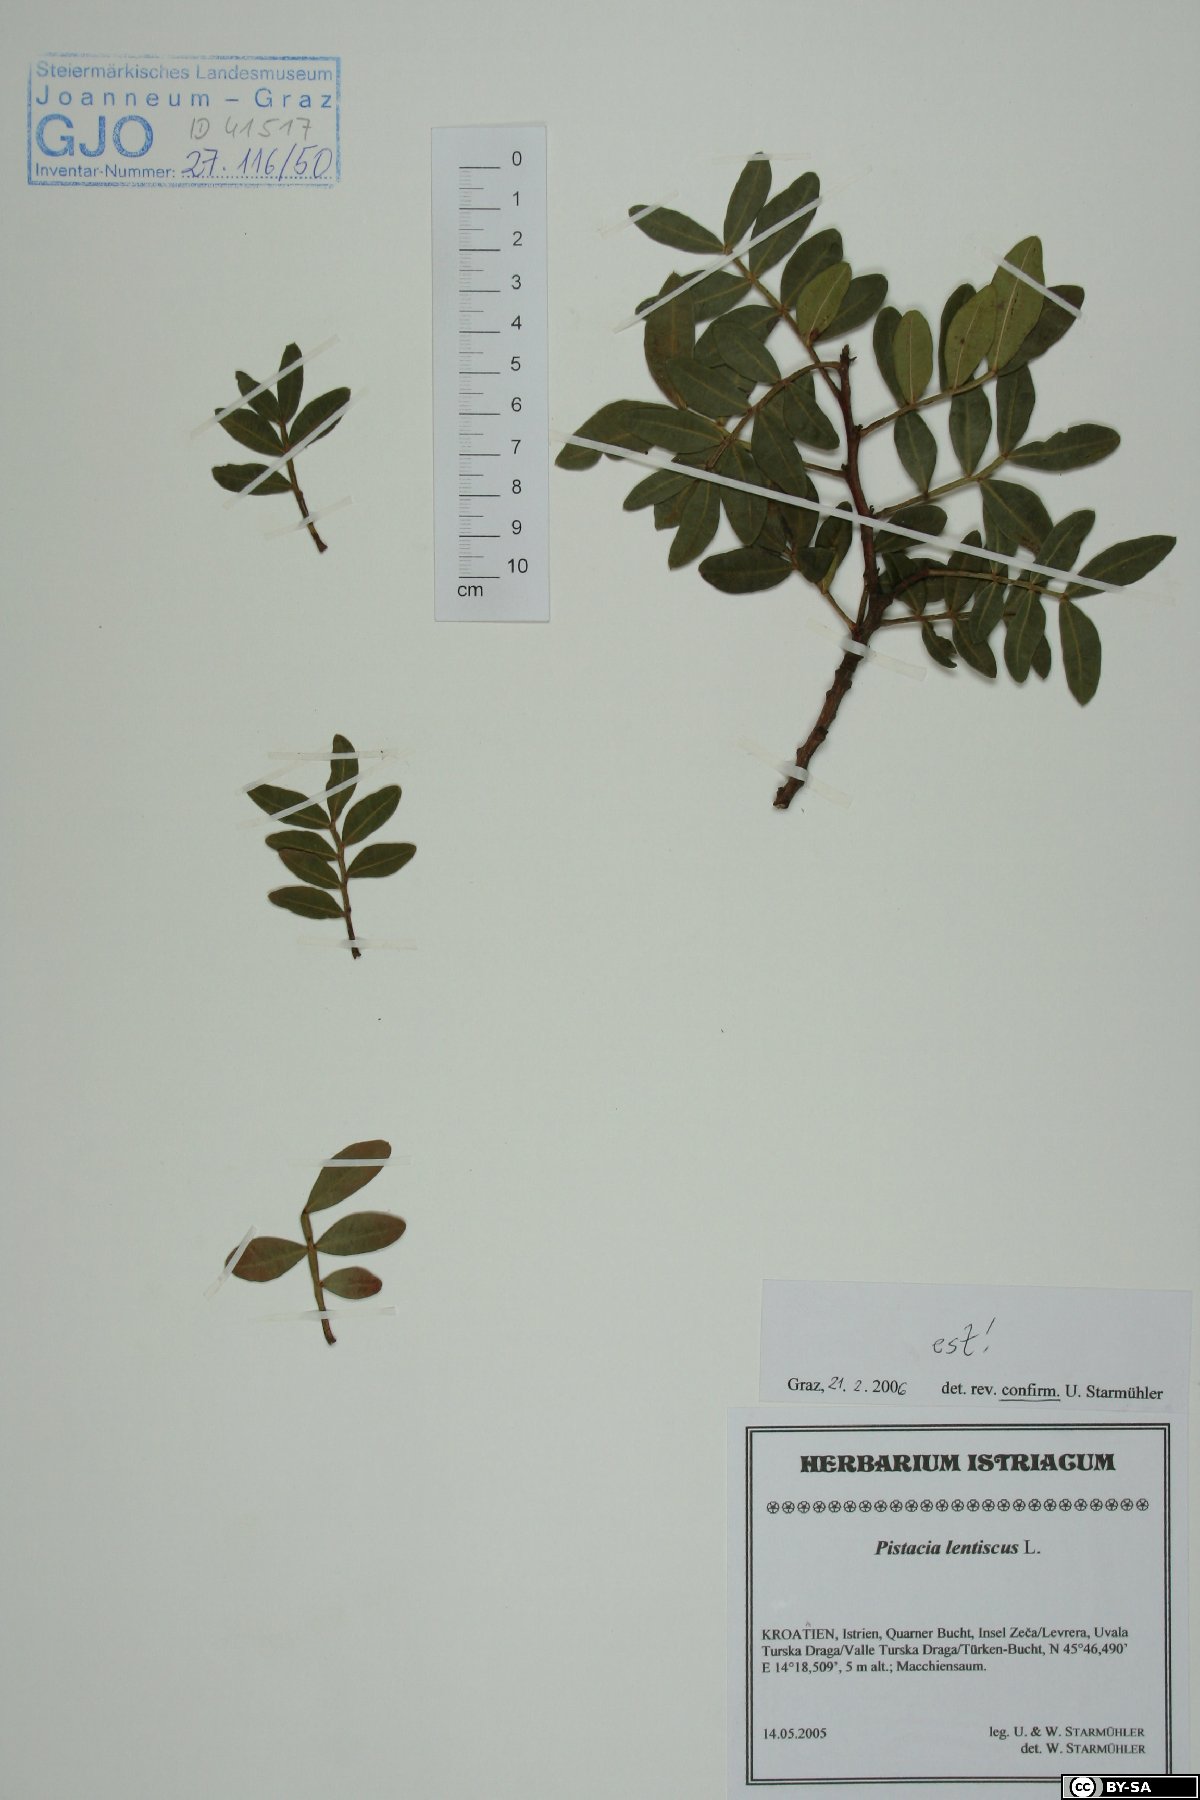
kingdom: Plantae
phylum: Tracheophyta
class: Magnoliopsida
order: Sapindales
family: Anacardiaceae
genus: Pistacia
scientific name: Pistacia lentiscus
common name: Lentisk
